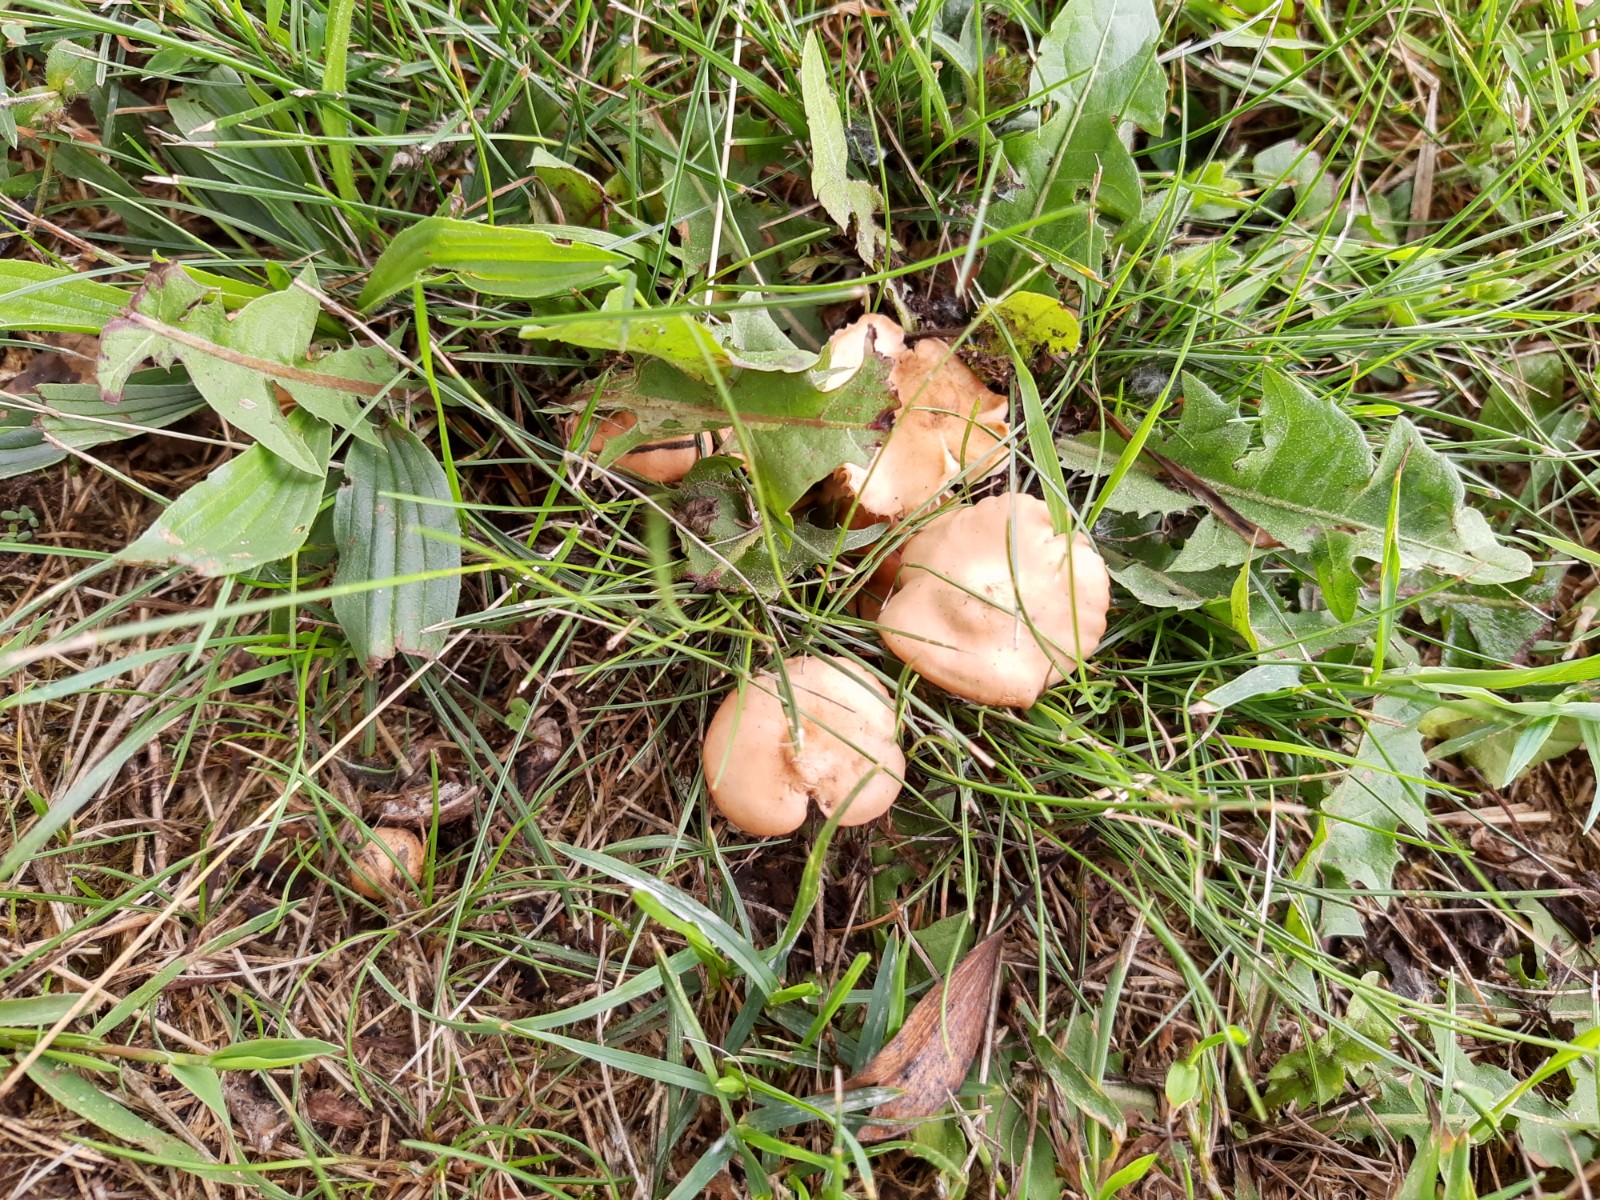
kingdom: Fungi
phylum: Basidiomycota
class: Agaricomycetes
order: Agaricales
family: Marasmiaceae
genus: Marasmius
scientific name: Marasmius oreades
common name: elledans-bruskhat
